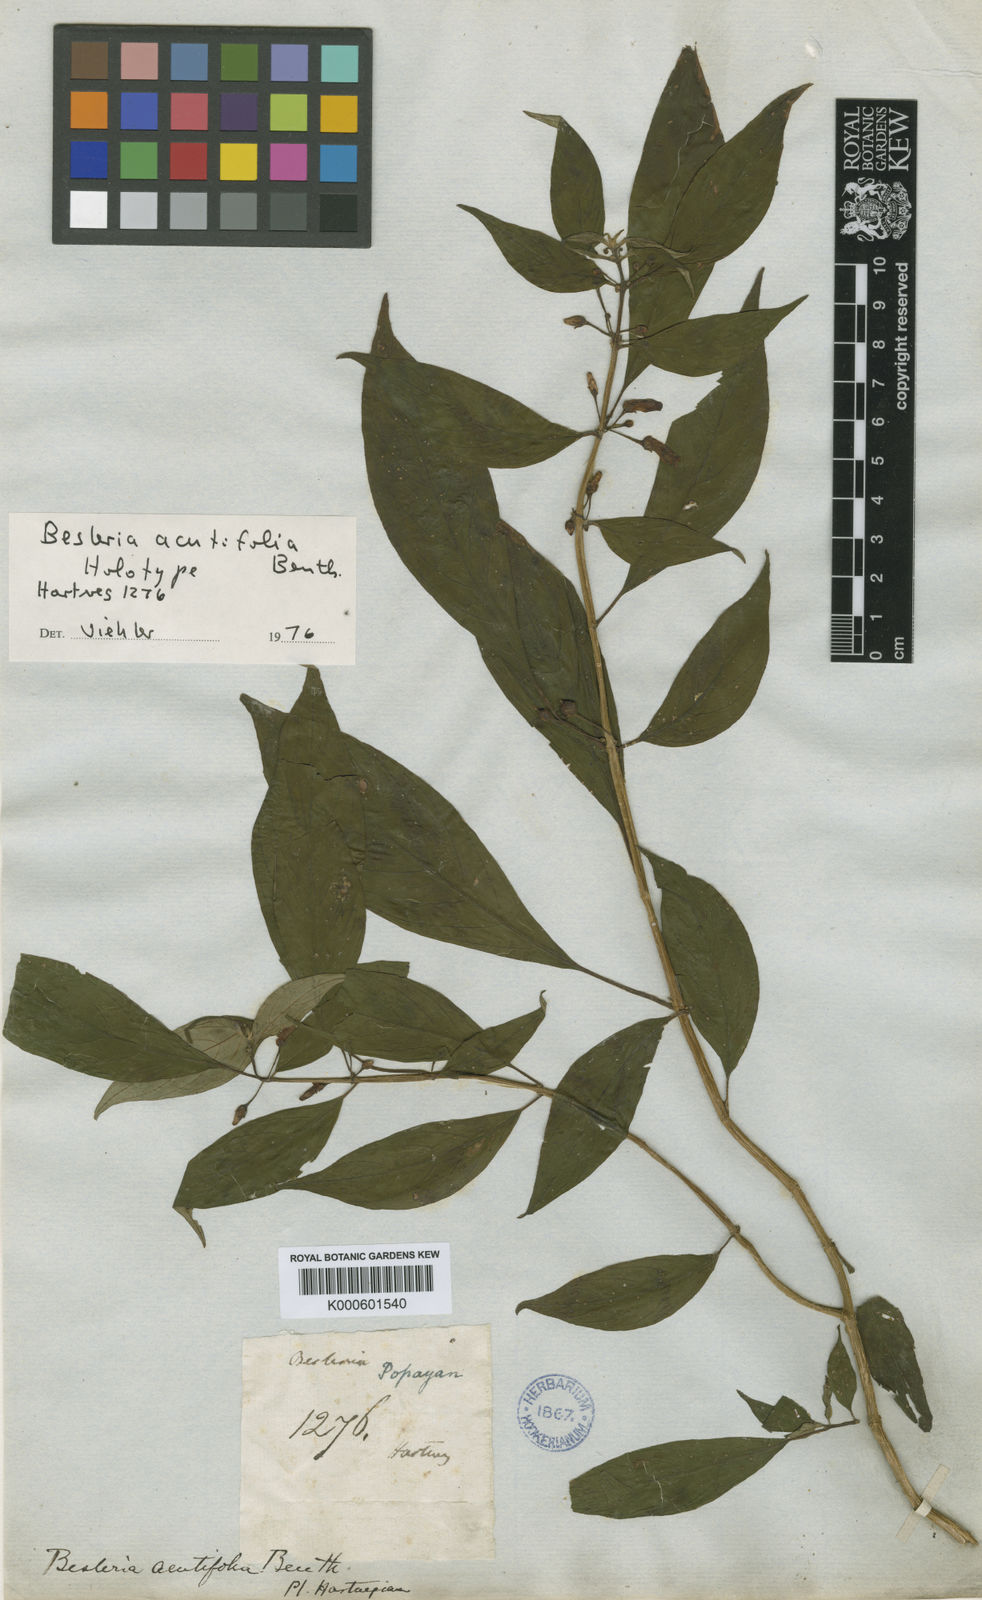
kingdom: Plantae
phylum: Tracheophyta
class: Magnoliopsida
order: Lamiales
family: Gesneriaceae
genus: Besleria
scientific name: Besleria solanoides
